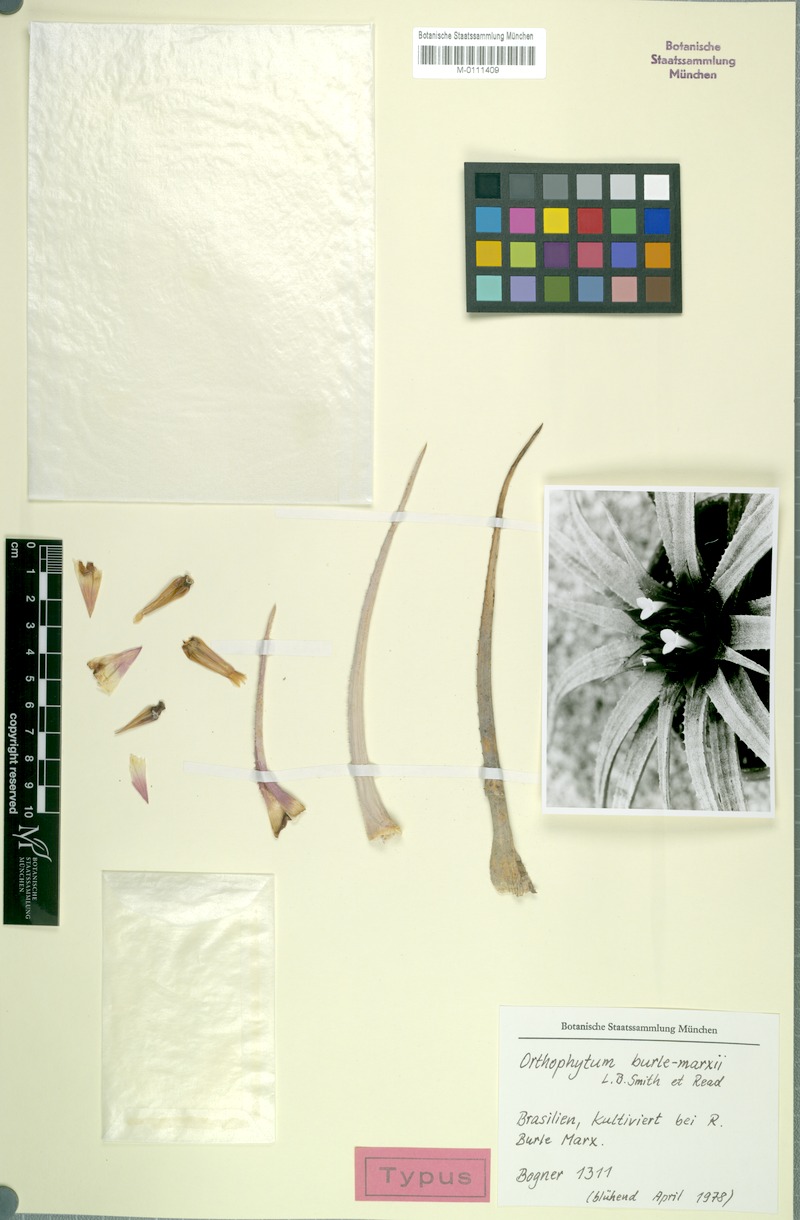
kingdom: Plantae
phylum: Tracheophyta
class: Liliopsida
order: Poales
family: Bromeliaceae
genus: Sincoraea
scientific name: Sincoraea burle-marxii
